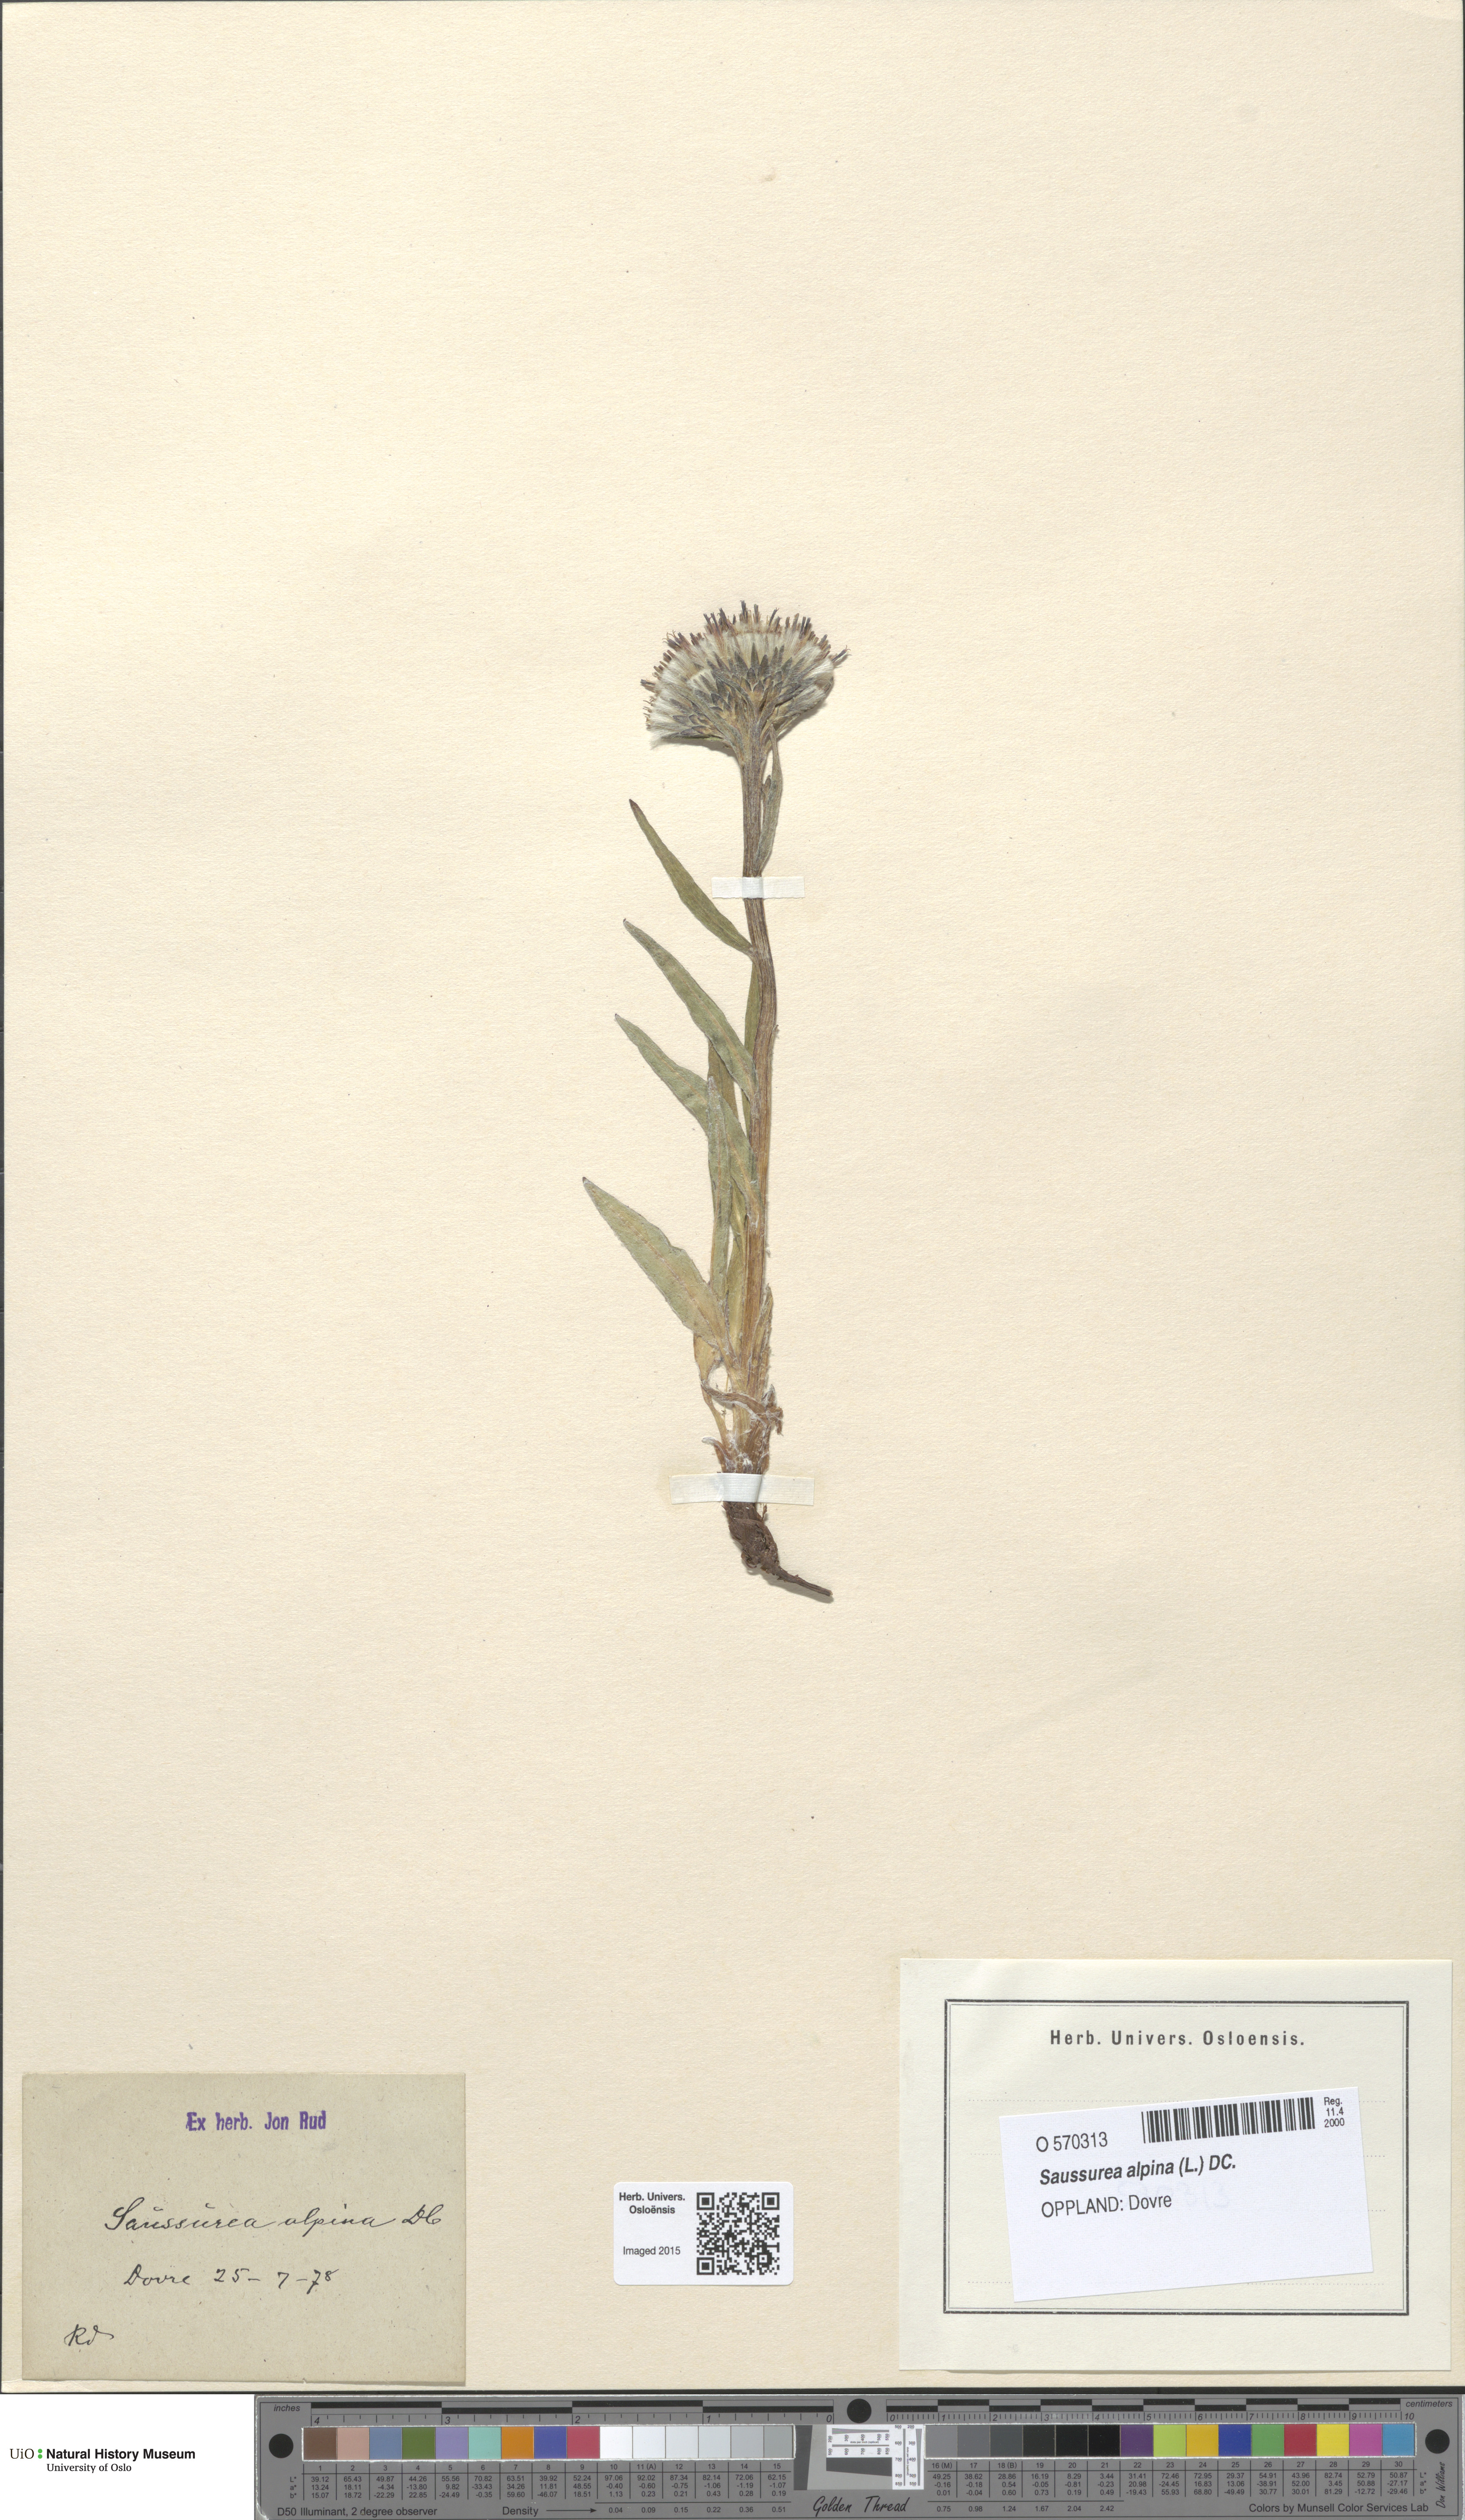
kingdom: Plantae
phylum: Tracheophyta
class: Magnoliopsida
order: Asterales
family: Asteraceae
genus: Saussurea
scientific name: Saussurea alpina
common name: Alpine saw-wort
